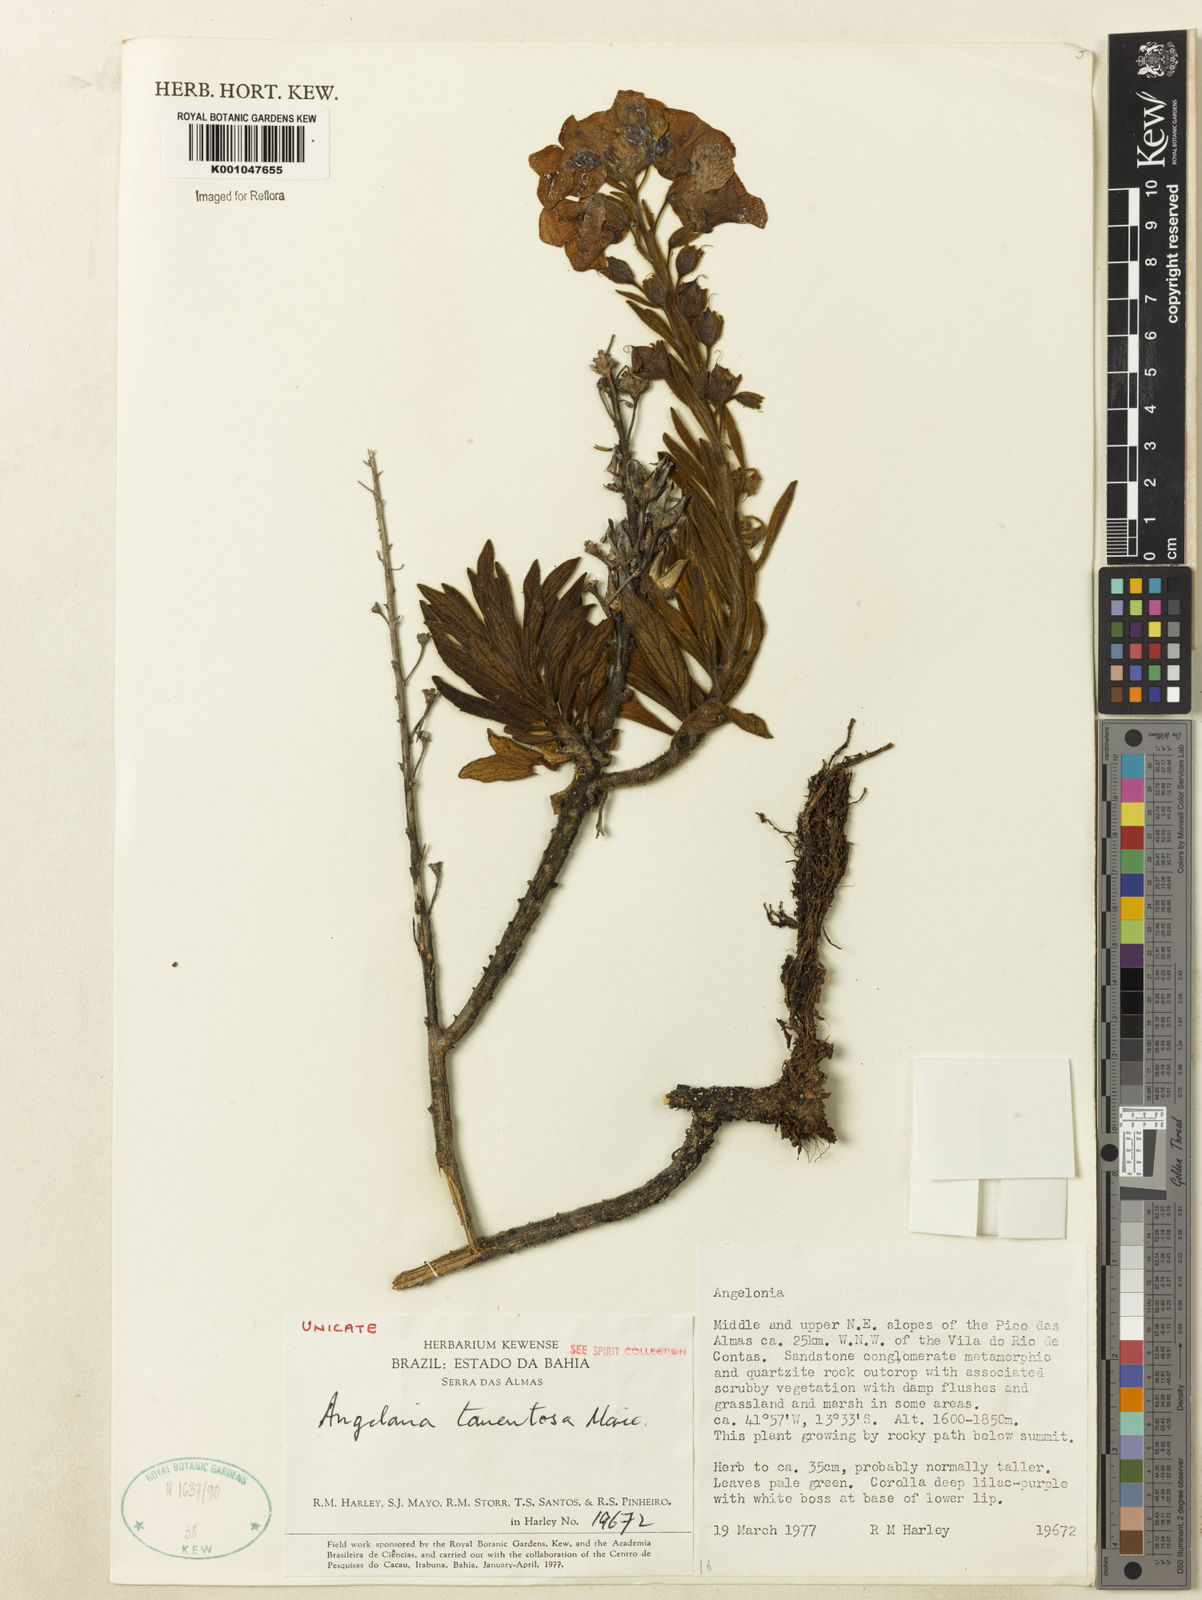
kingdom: Plantae
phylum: Tracheophyta
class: Magnoliopsida
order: Lamiales
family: Plantaginaceae
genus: Angelonia
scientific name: Angelonia tomentosa
